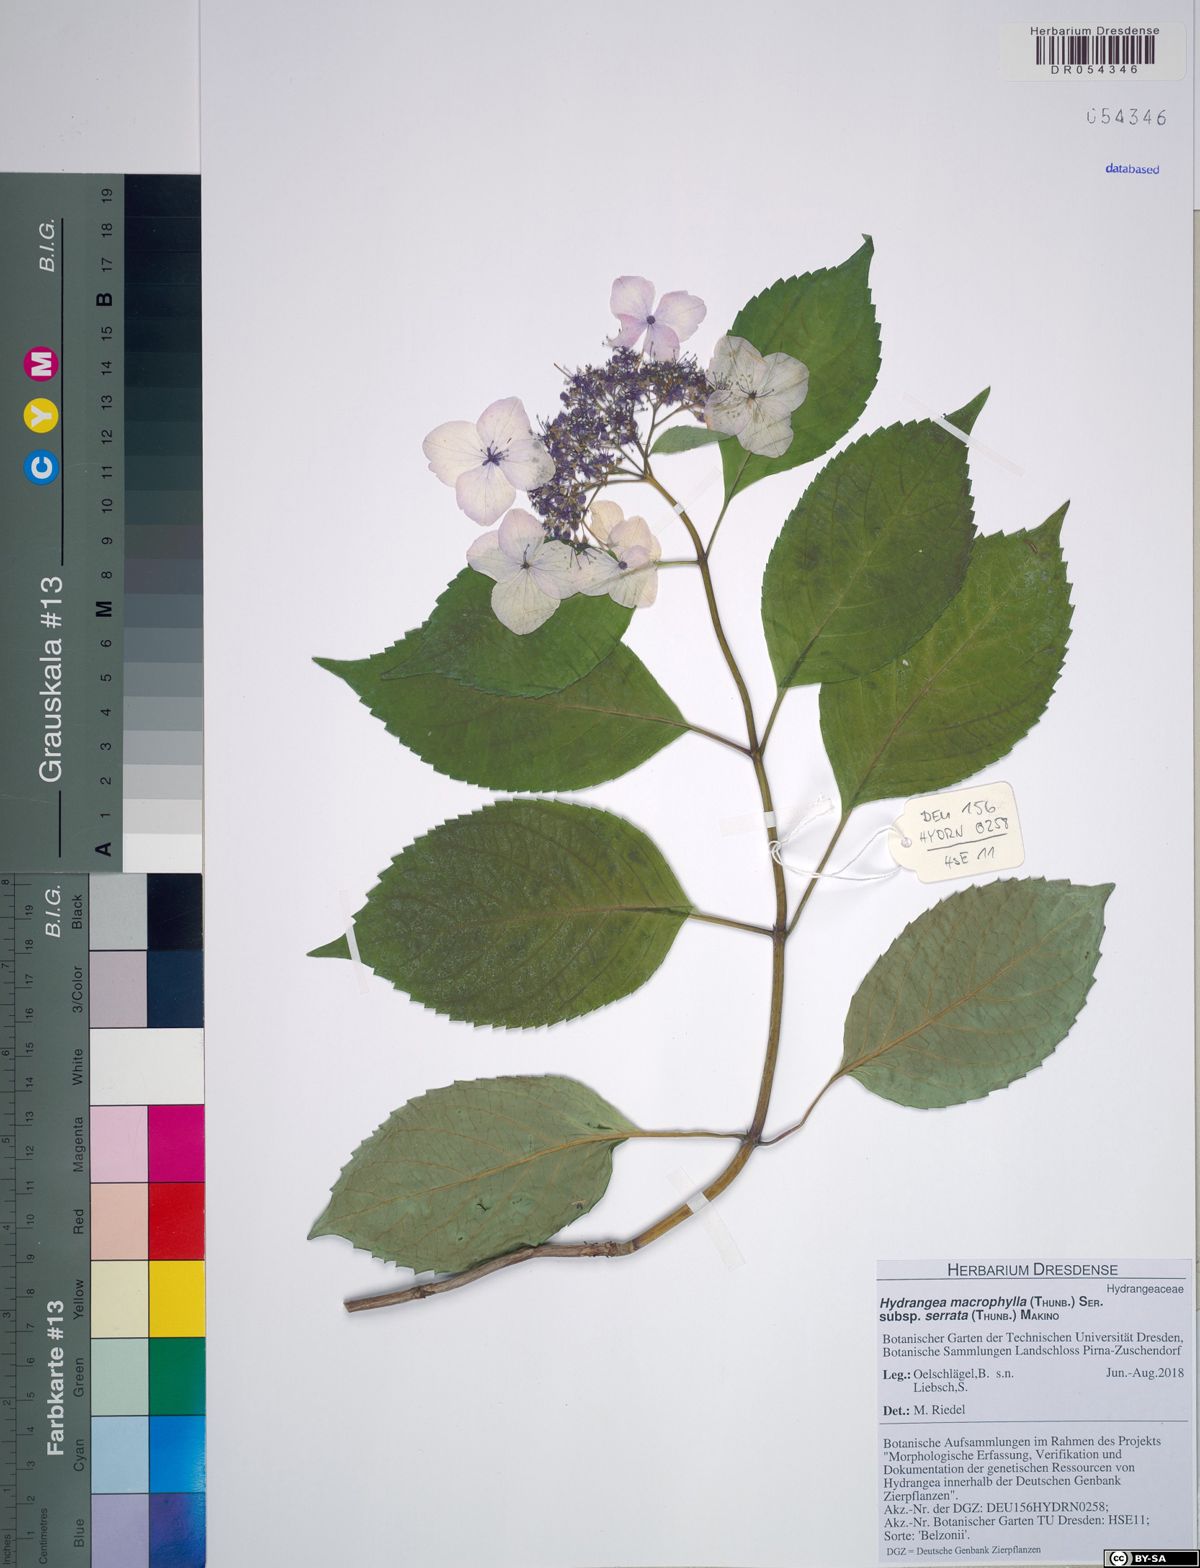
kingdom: Plantae
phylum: Tracheophyta
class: Magnoliopsida
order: Cornales
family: Hydrangeaceae
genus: Hydrangea
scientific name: Hydrangea serrata
